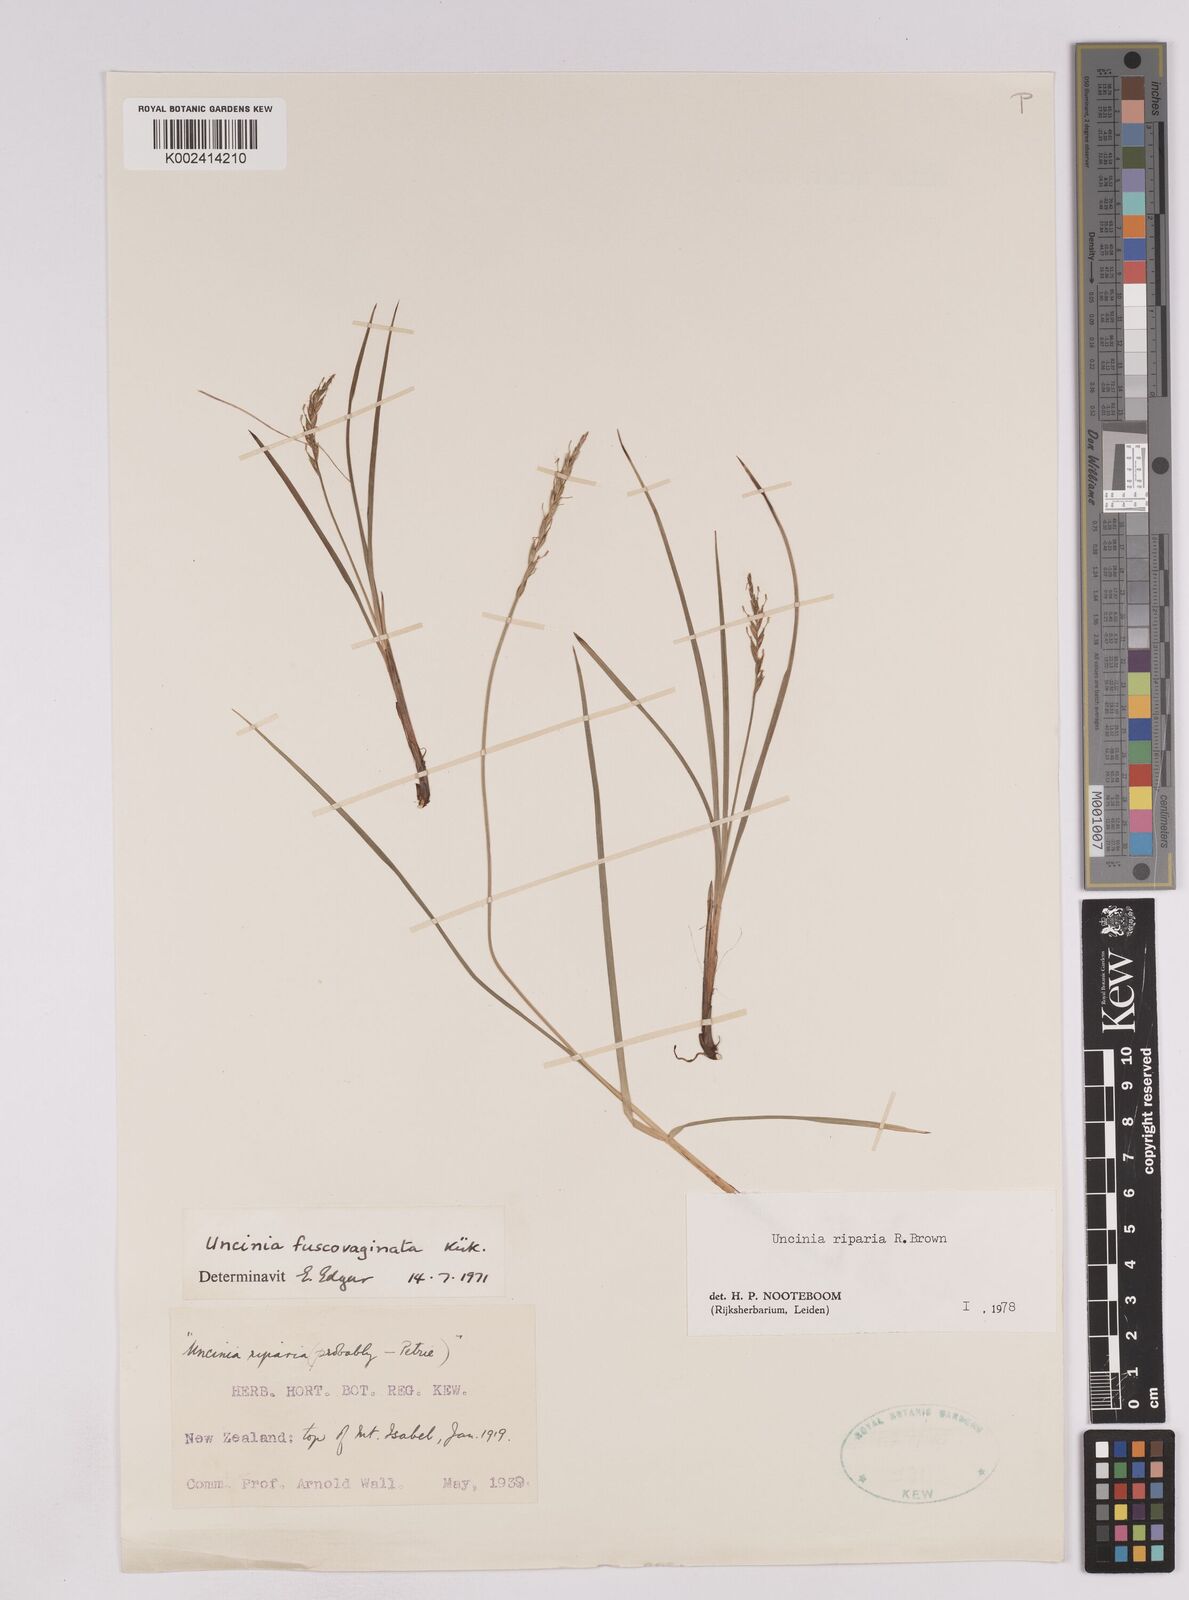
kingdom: Plantae
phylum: Tracheophyta
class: Liliopsida
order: Poales
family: Cyperaceae
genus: Carex
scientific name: Carex penalpina
